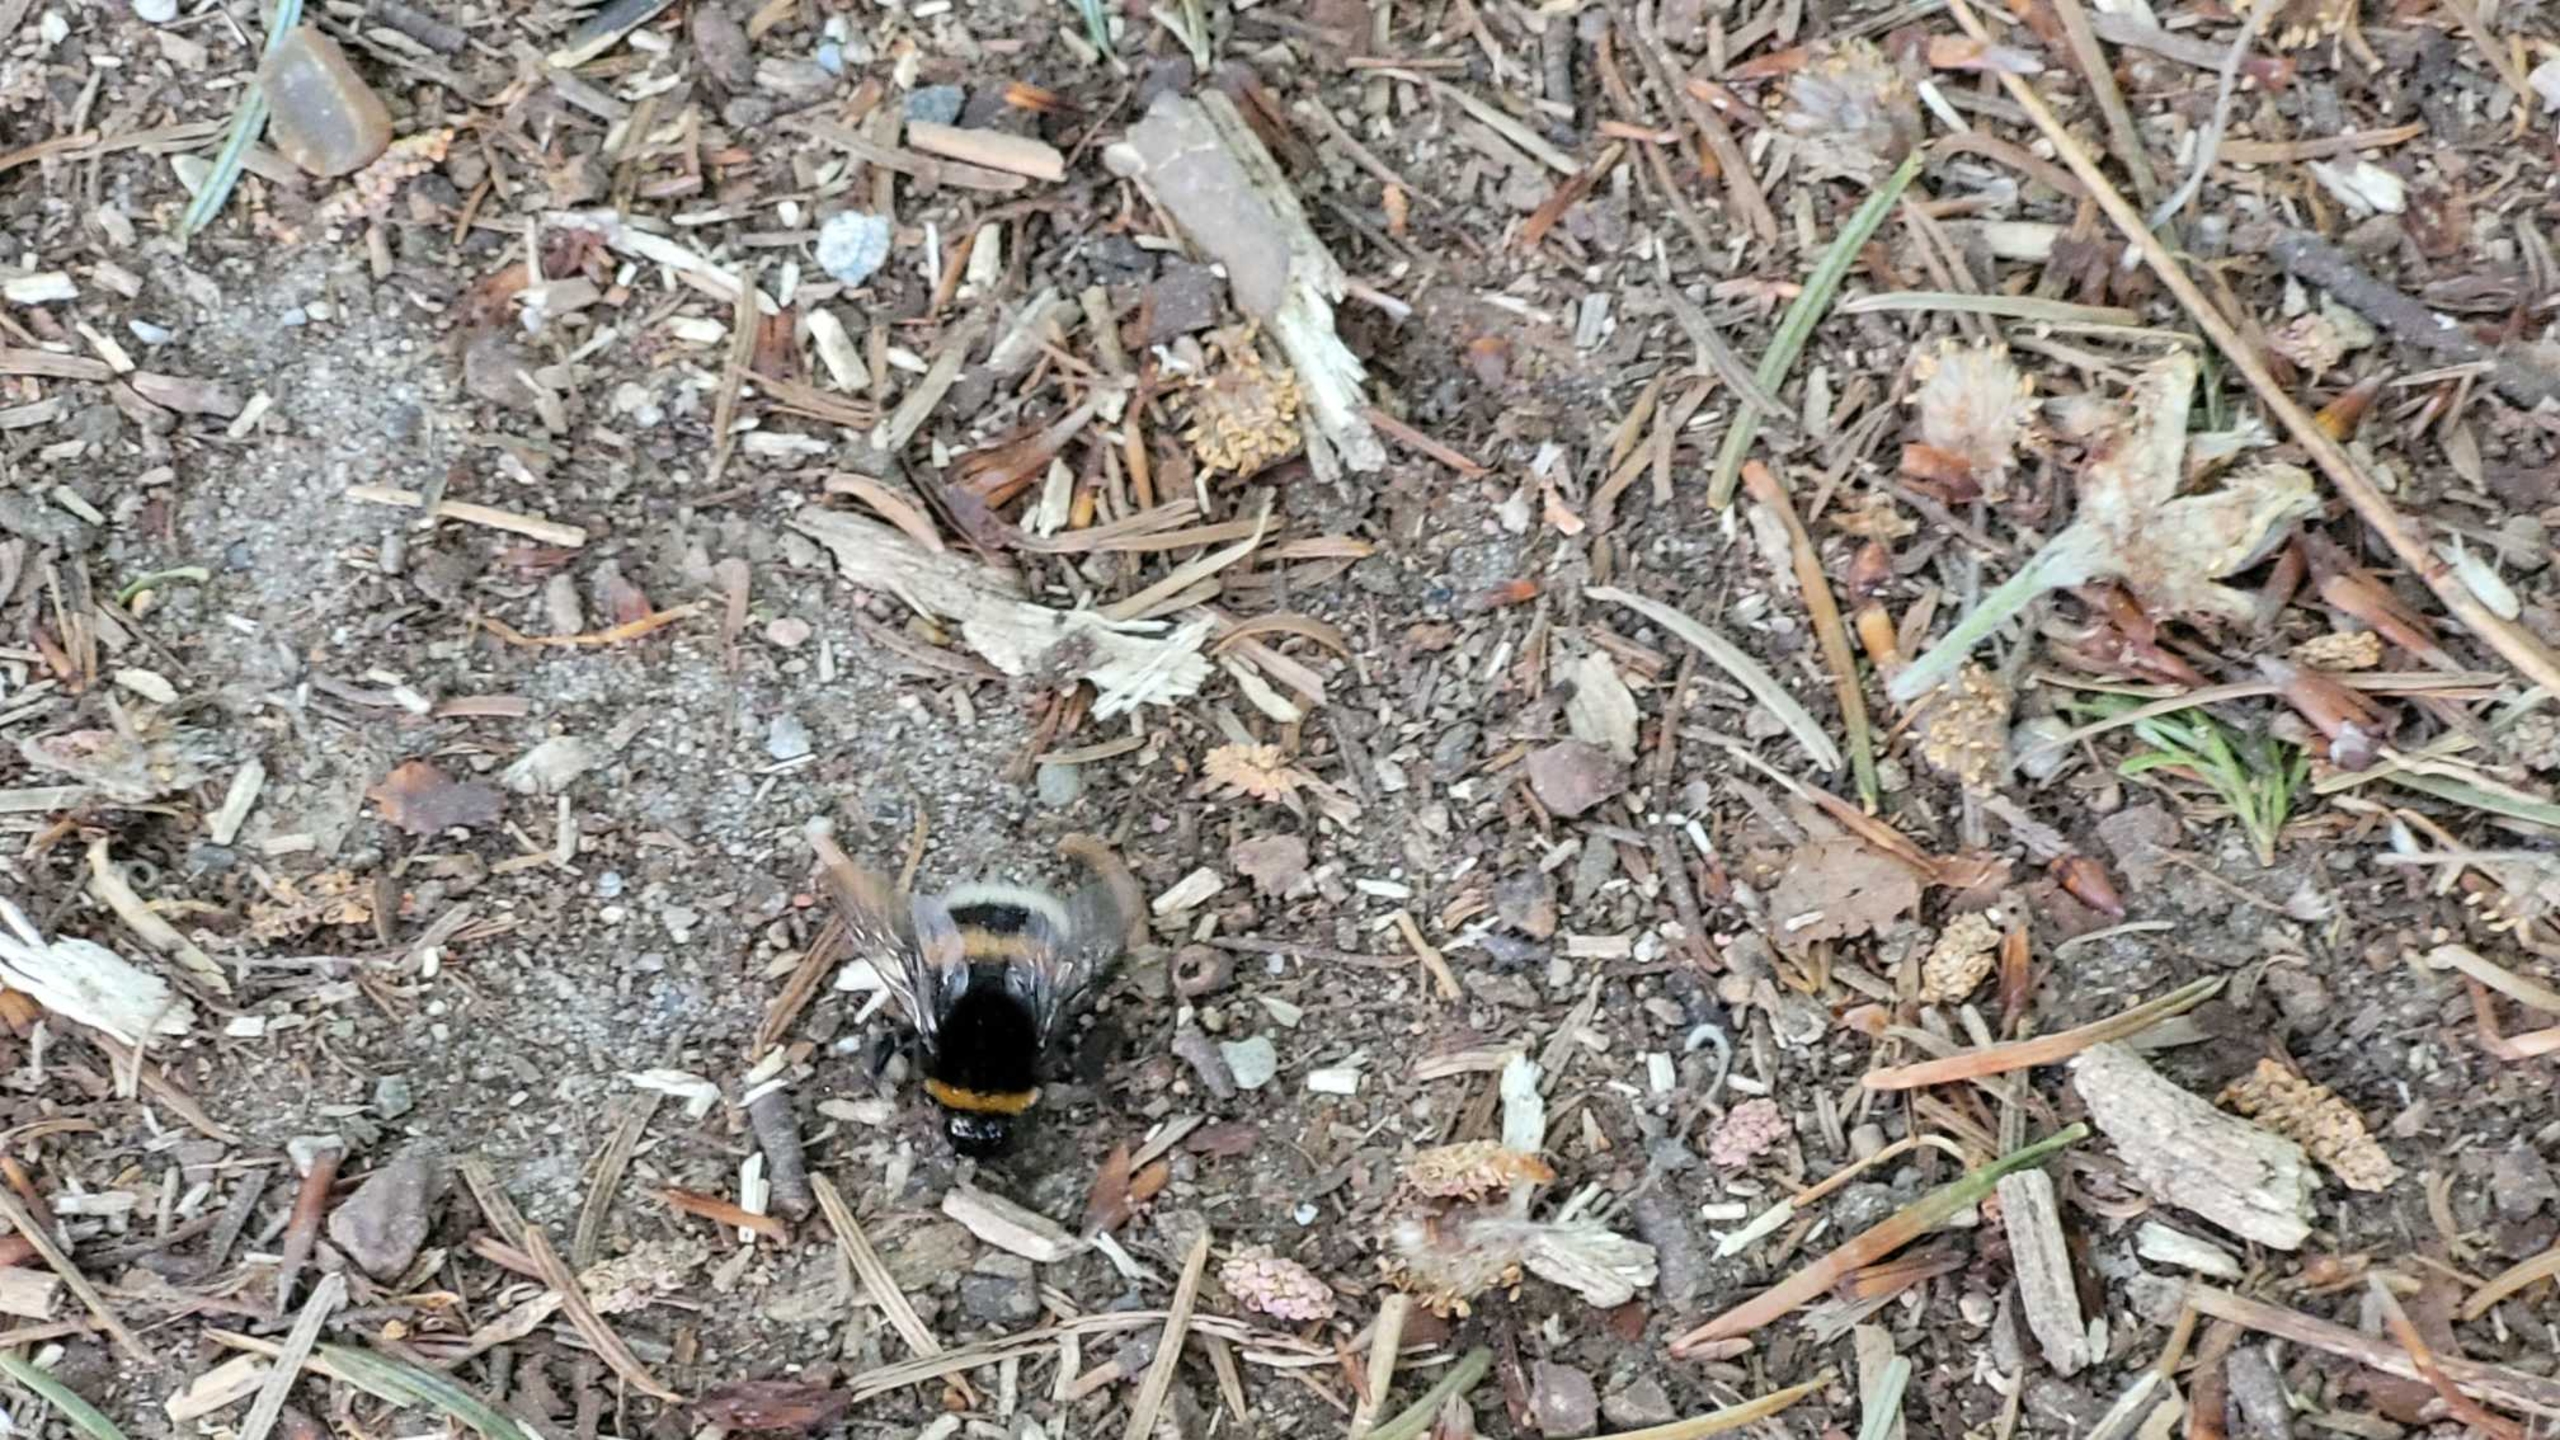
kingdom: Animalia
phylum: Arthropoda
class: Insecta
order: Hymenoptera
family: Apidae
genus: Bombus
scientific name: Bombus
